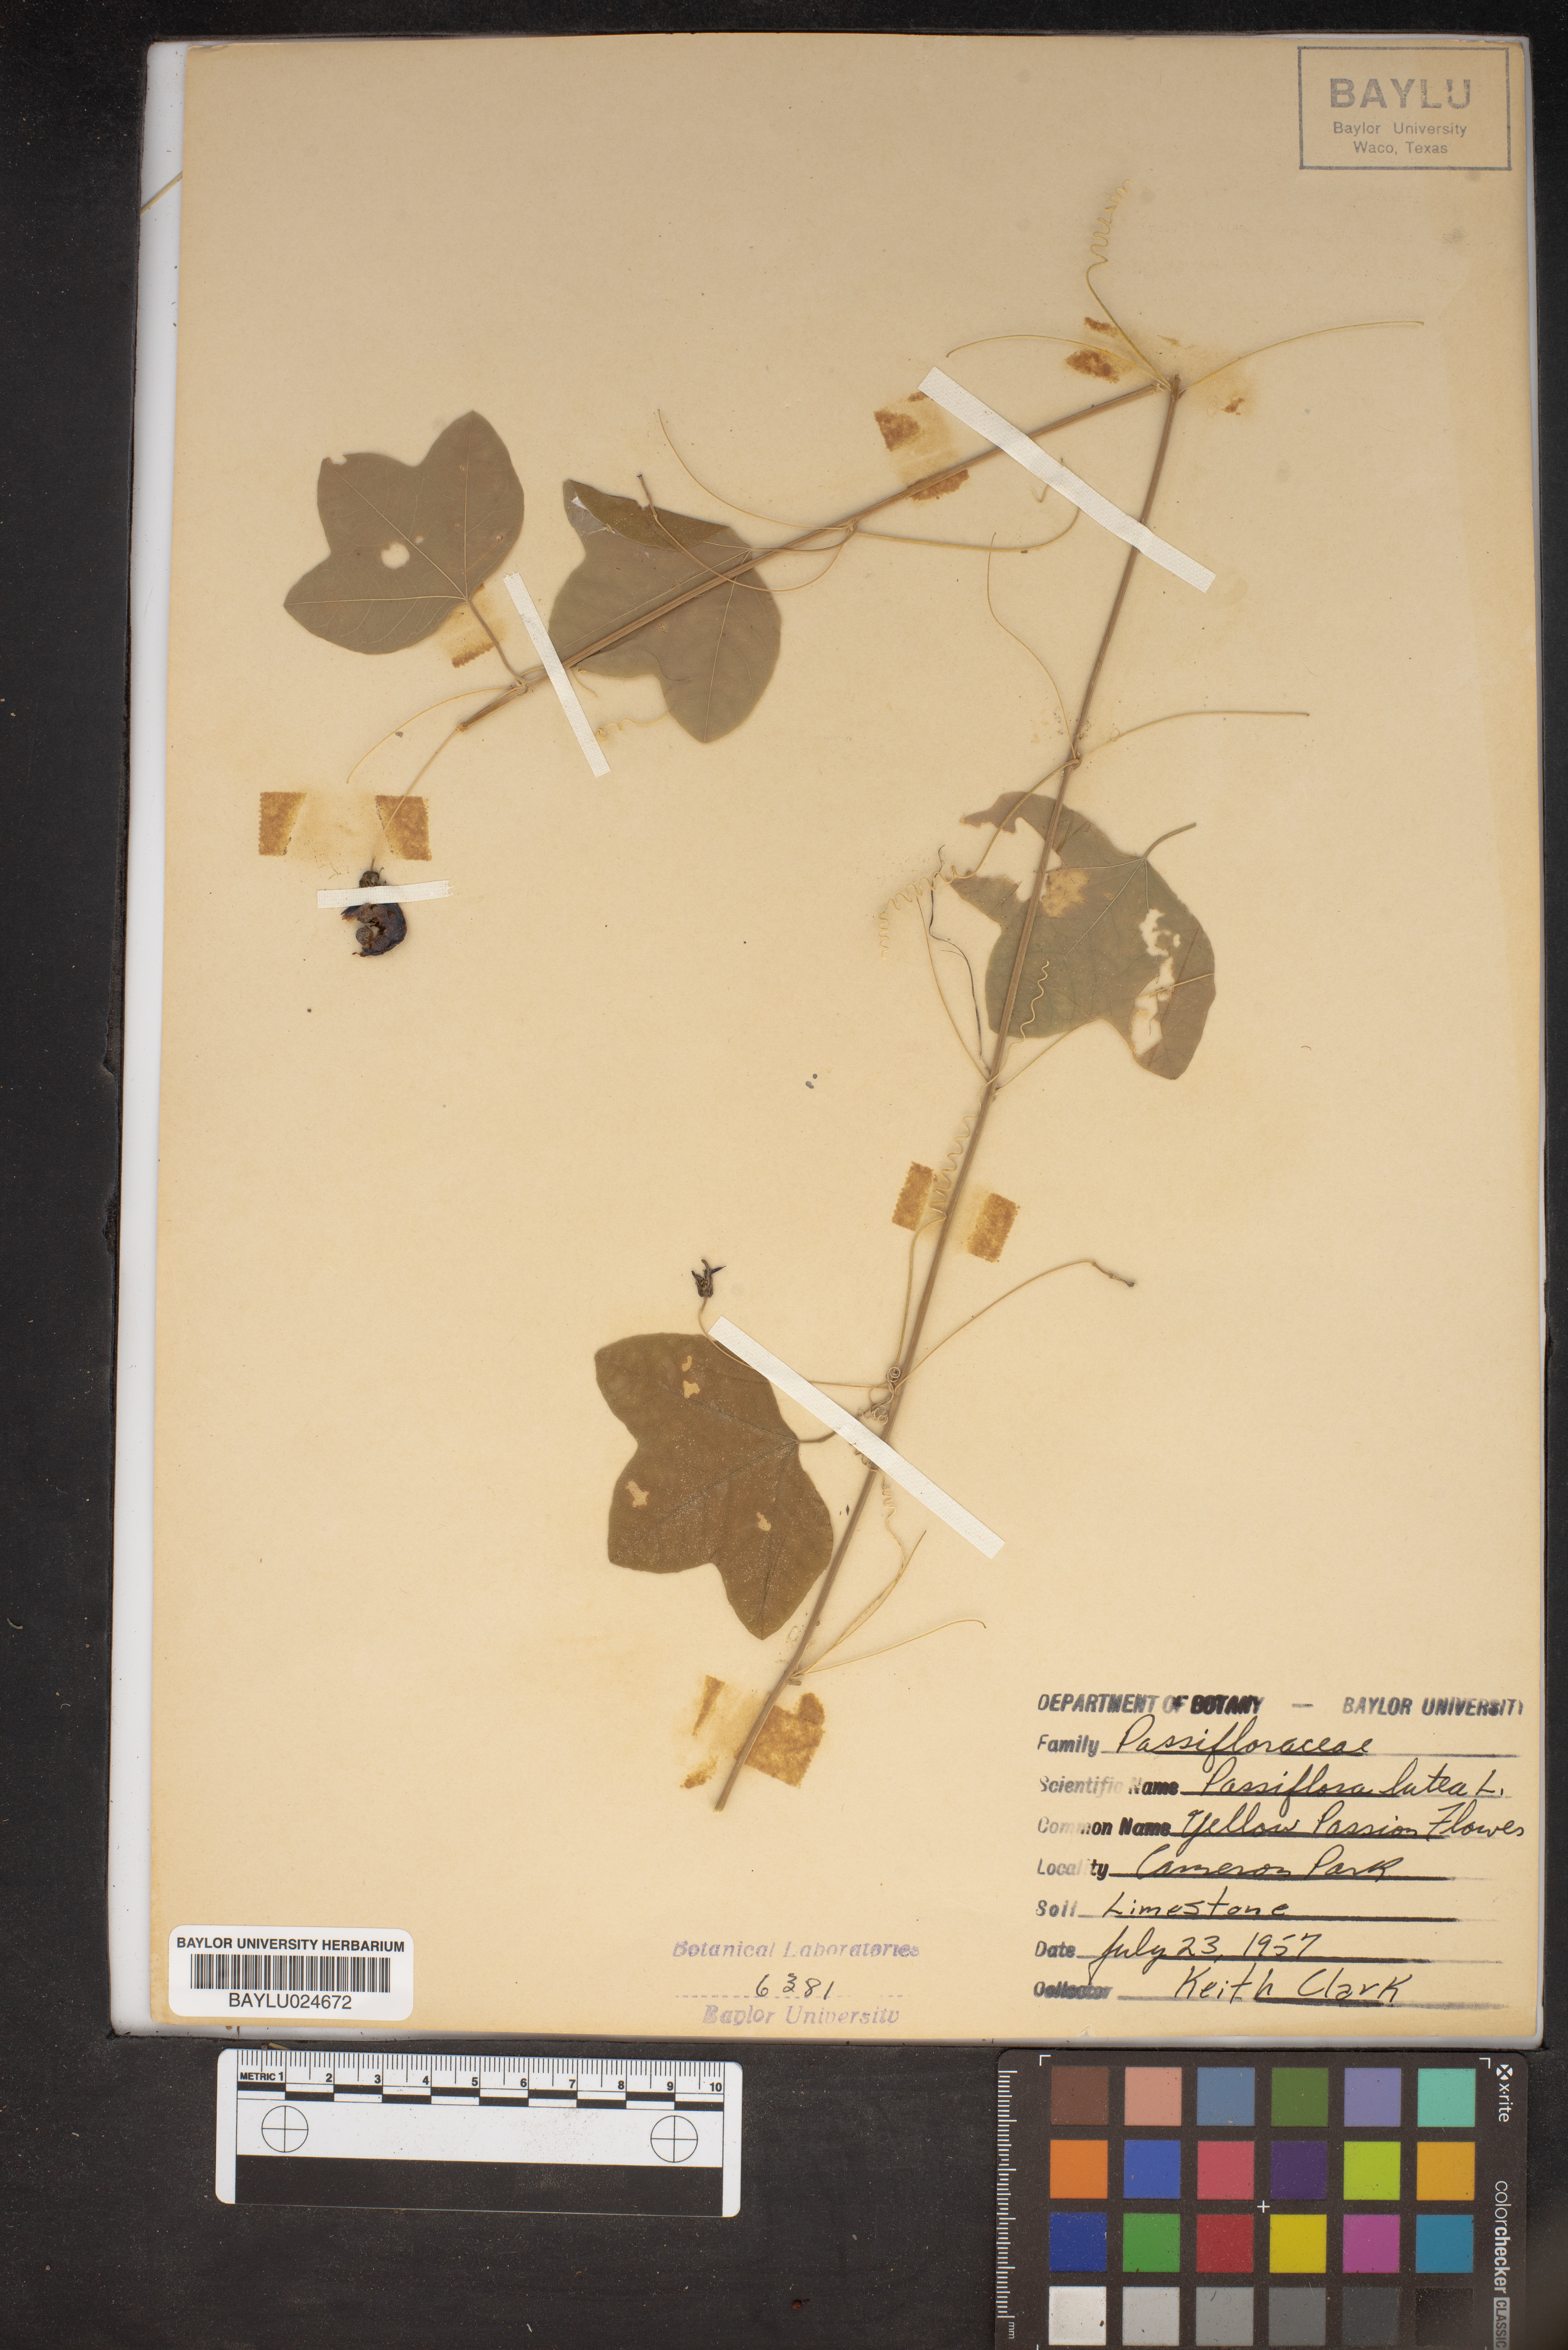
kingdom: Plantae
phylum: Tracheophyta
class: Magnoliopsida
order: Malpighiales
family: Passifloraceae
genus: Passiflora
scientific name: Passiflora lutea
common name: Yellow passionflower
